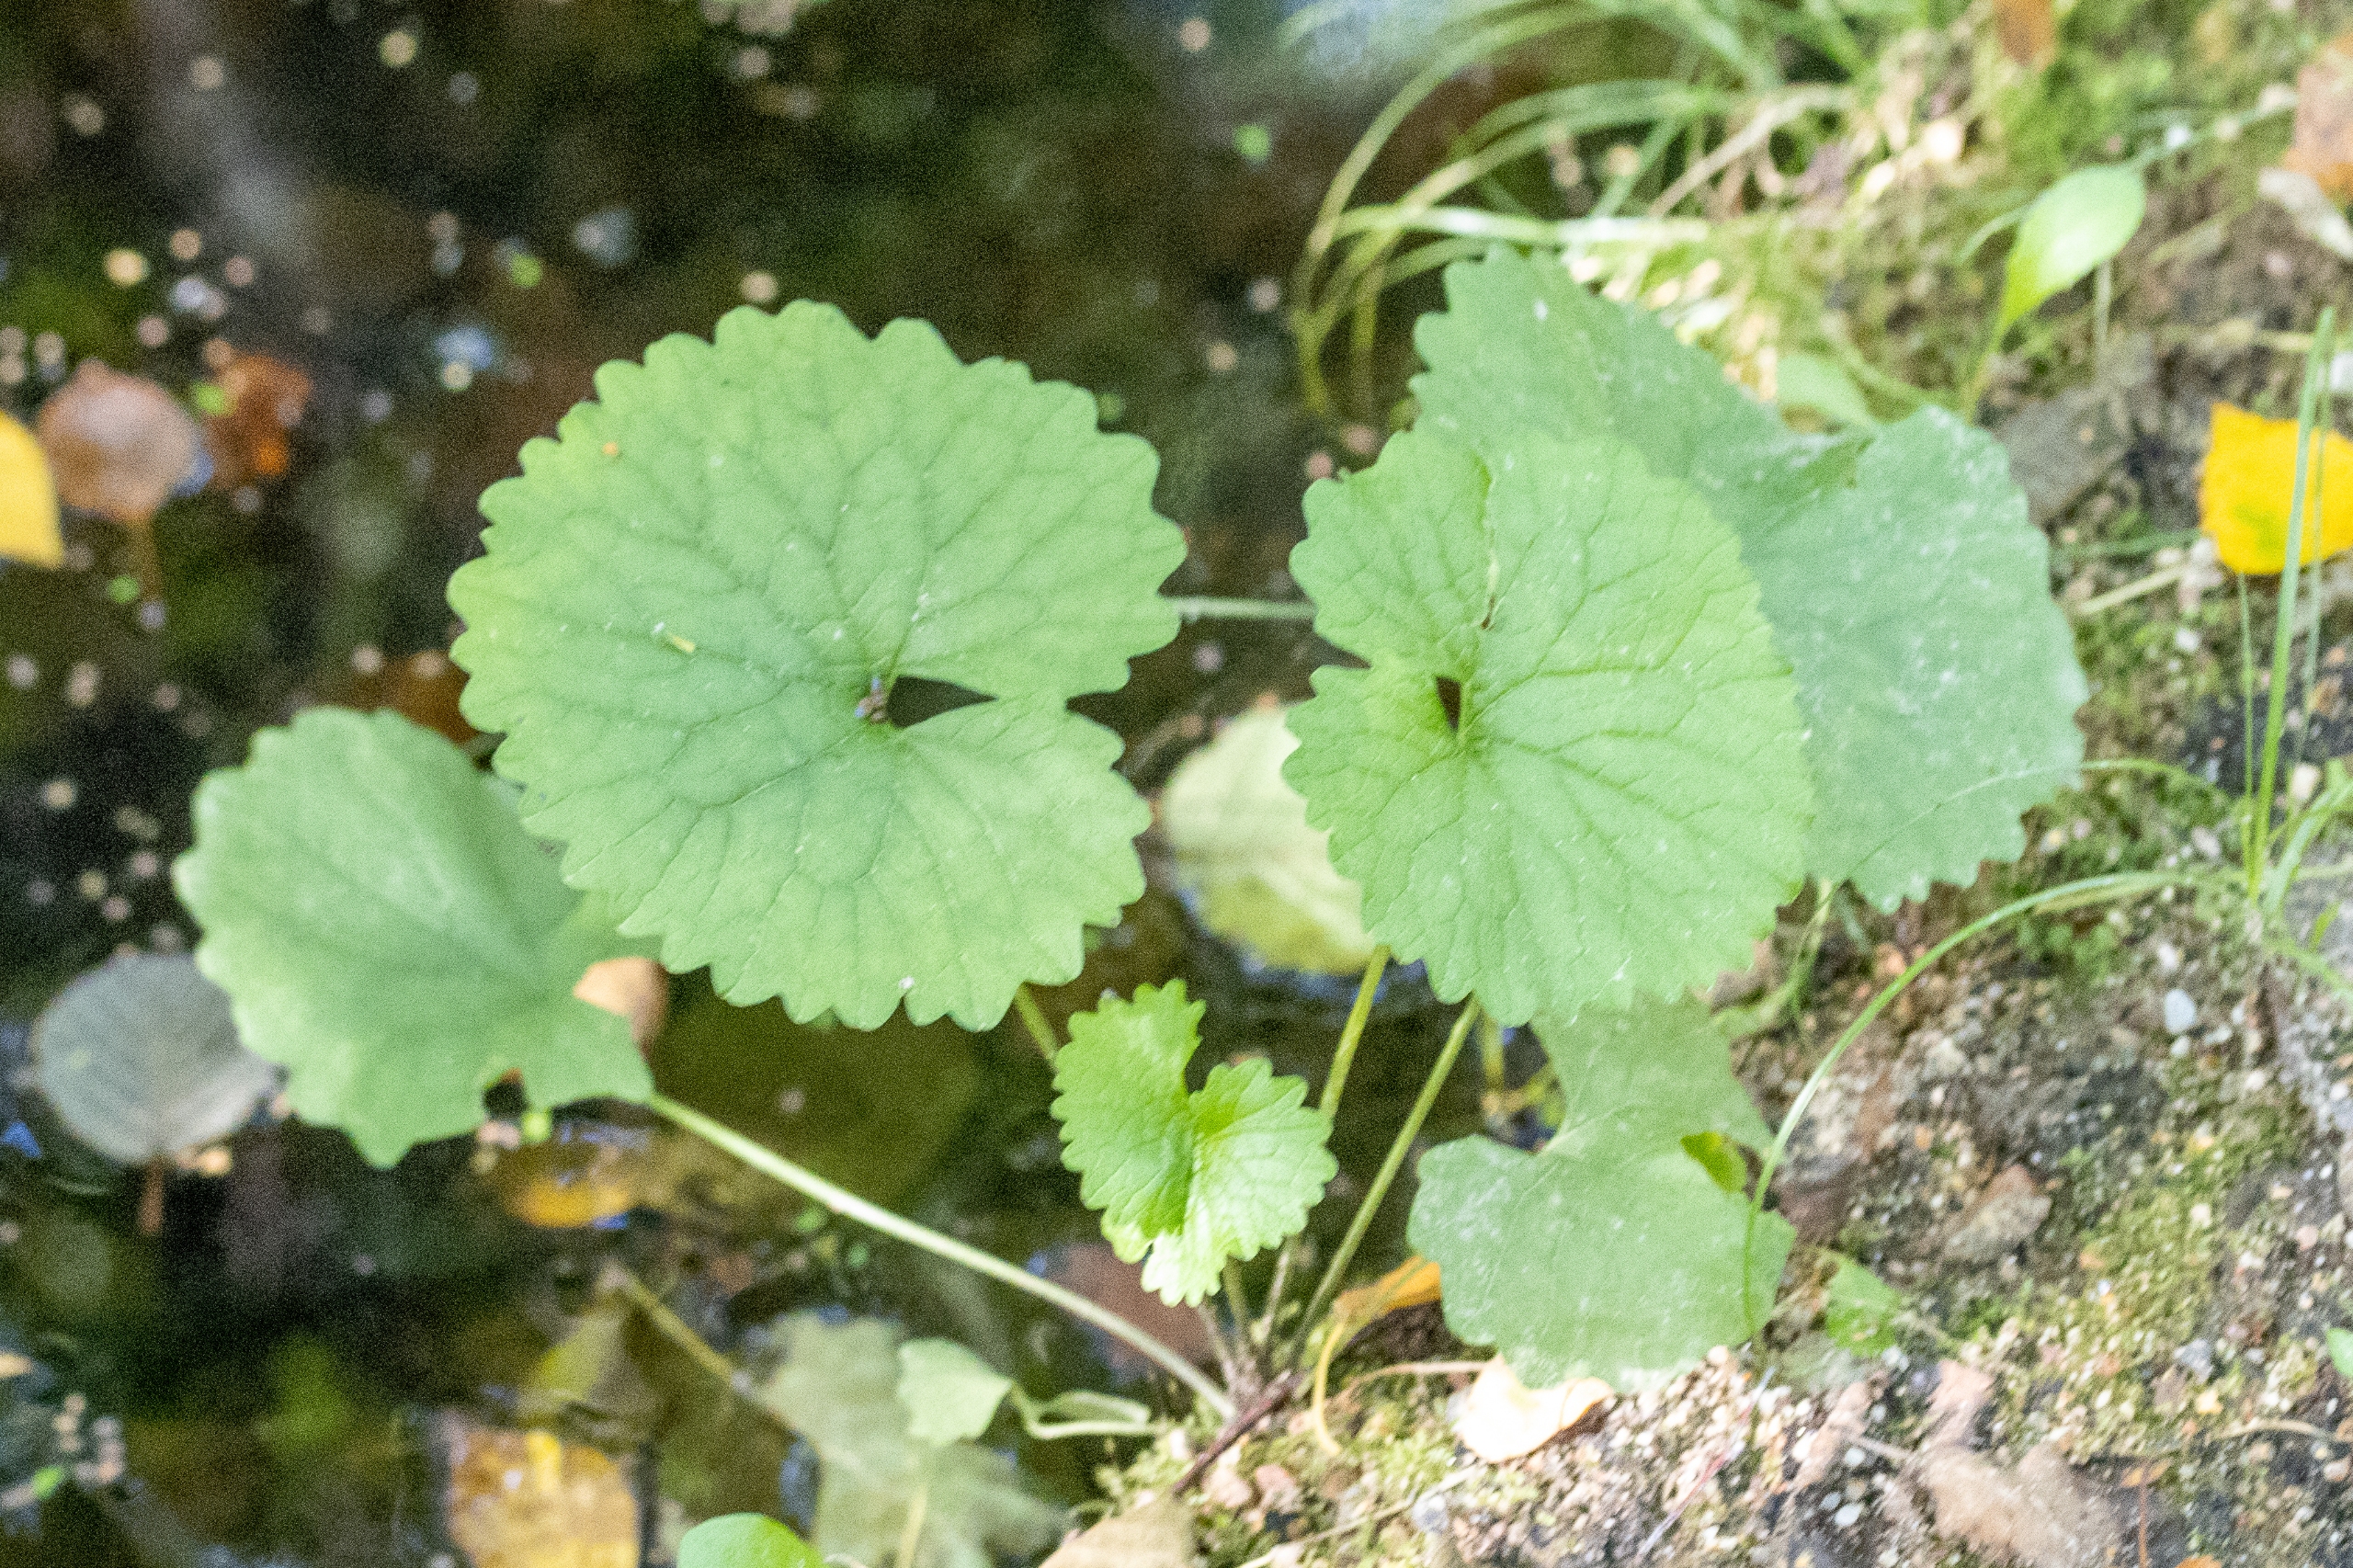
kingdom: Plantae
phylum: Tracheophyta
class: Magnoliopsida
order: Lamiales
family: Lamiaceae
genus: Glechoma
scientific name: Glechoma hederacea
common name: Korsknap
